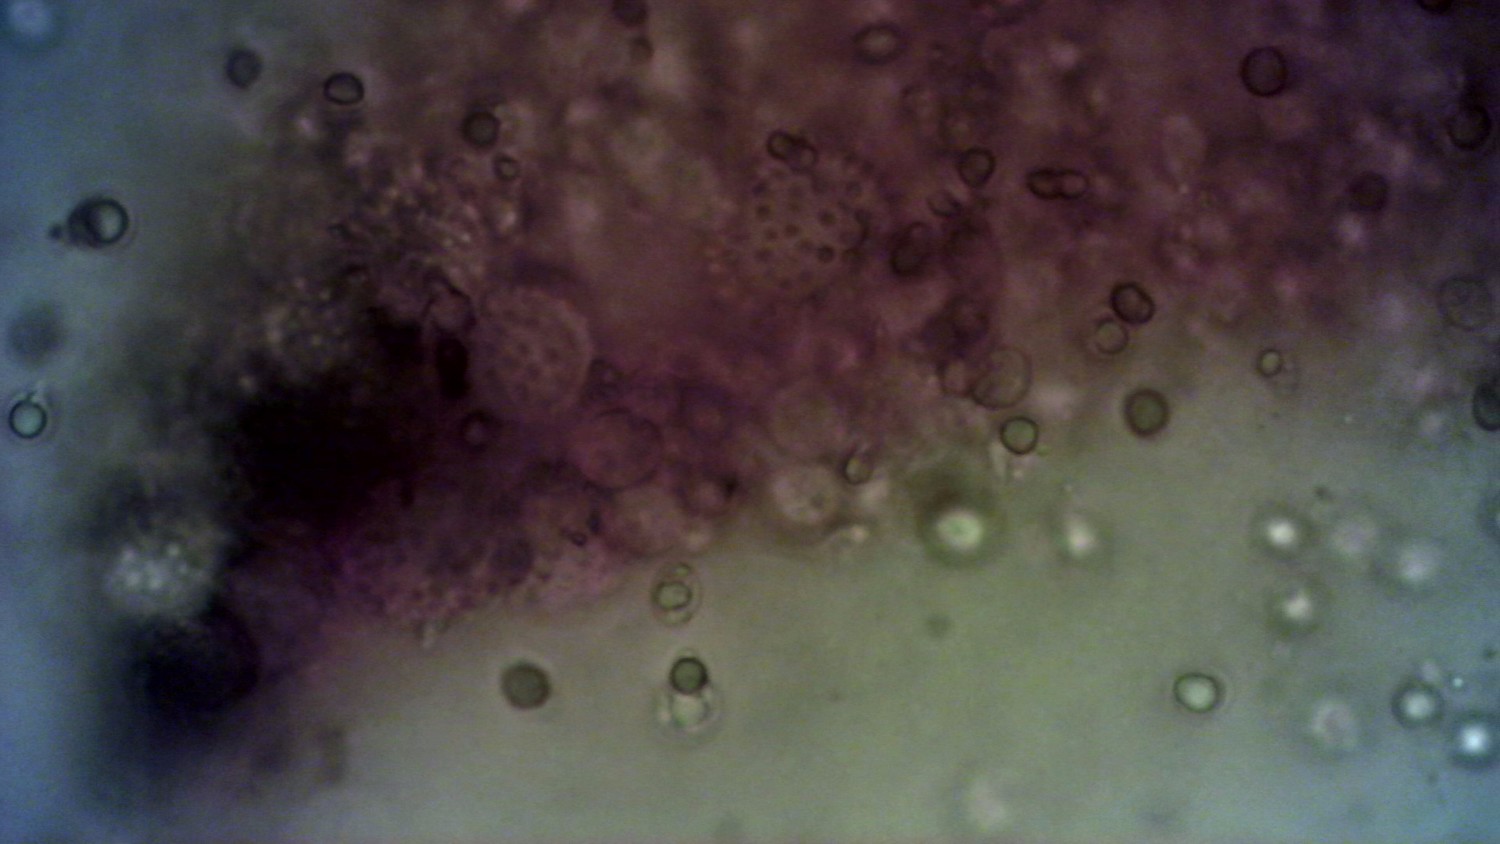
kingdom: Fungi
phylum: Basidiomycota
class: Agaricomycetes
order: Agaricales
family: Mycenaceae
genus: Mycena
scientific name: Mycena arcangeliana
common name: oliven-huesvamp
